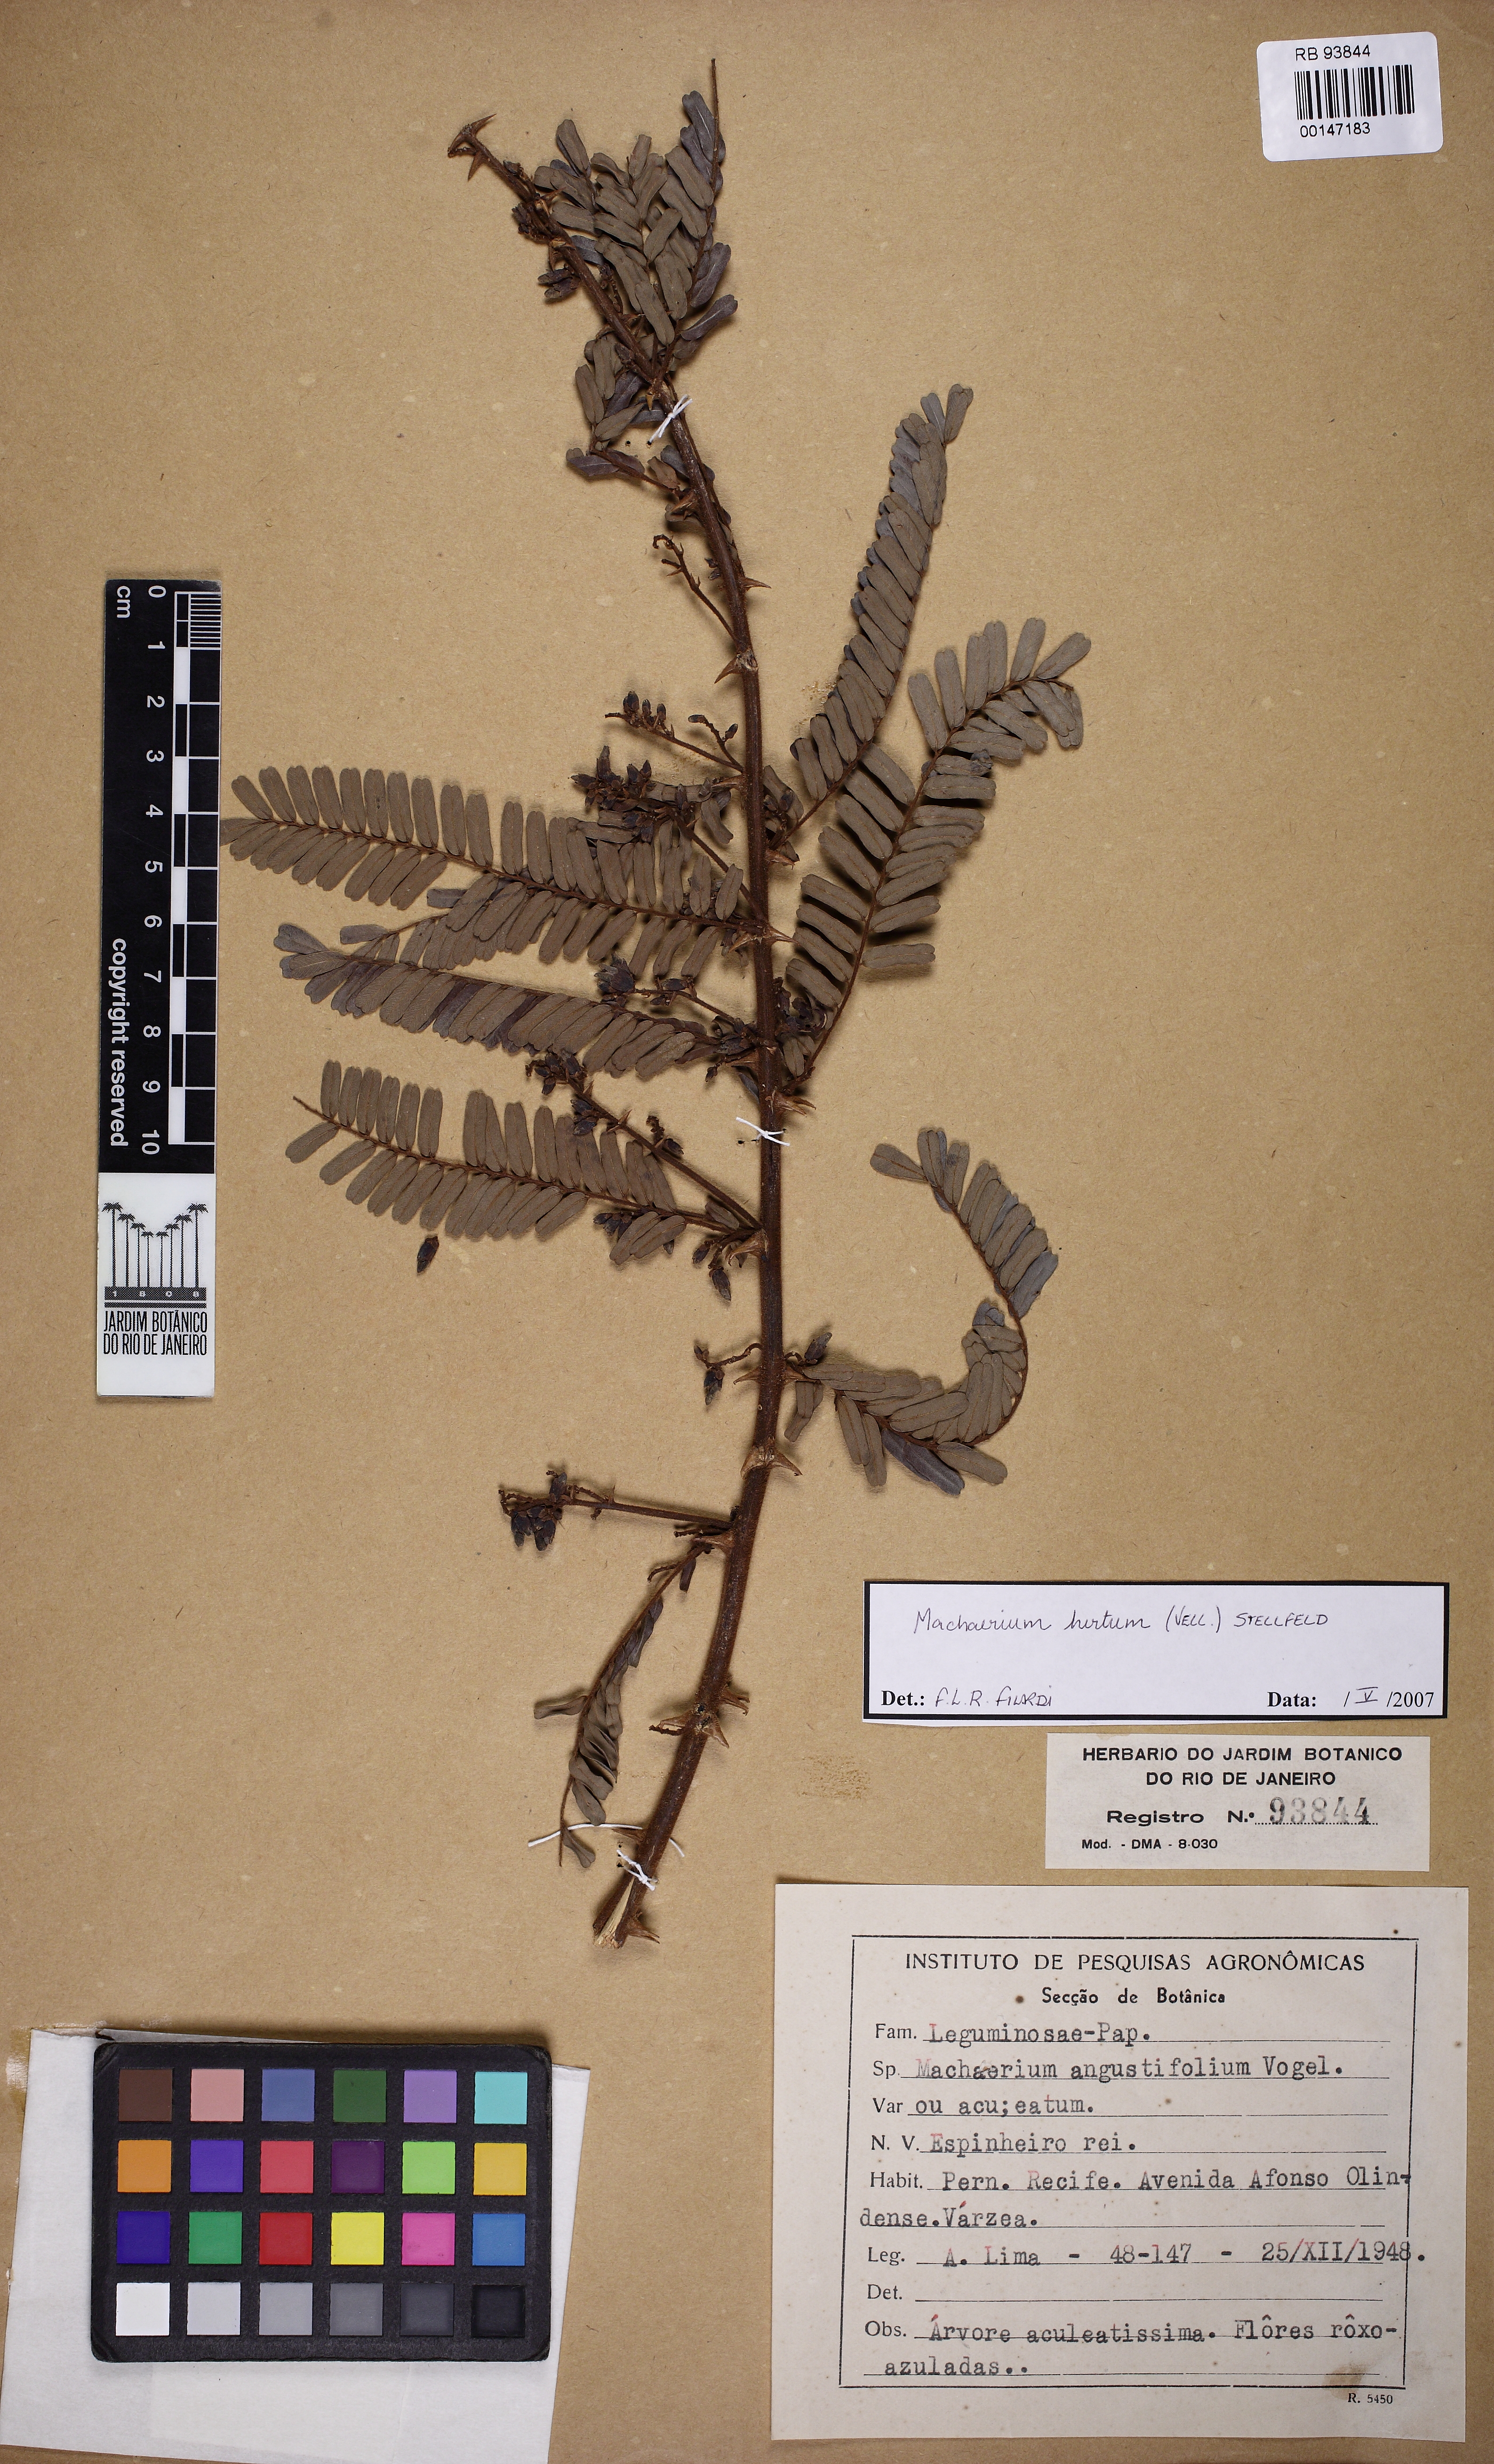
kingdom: Plantae
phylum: Tracheophyta
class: Magnoliopsida
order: Fabales
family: Fabaceae
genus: Machaerium
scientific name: Machaerium hirtum
